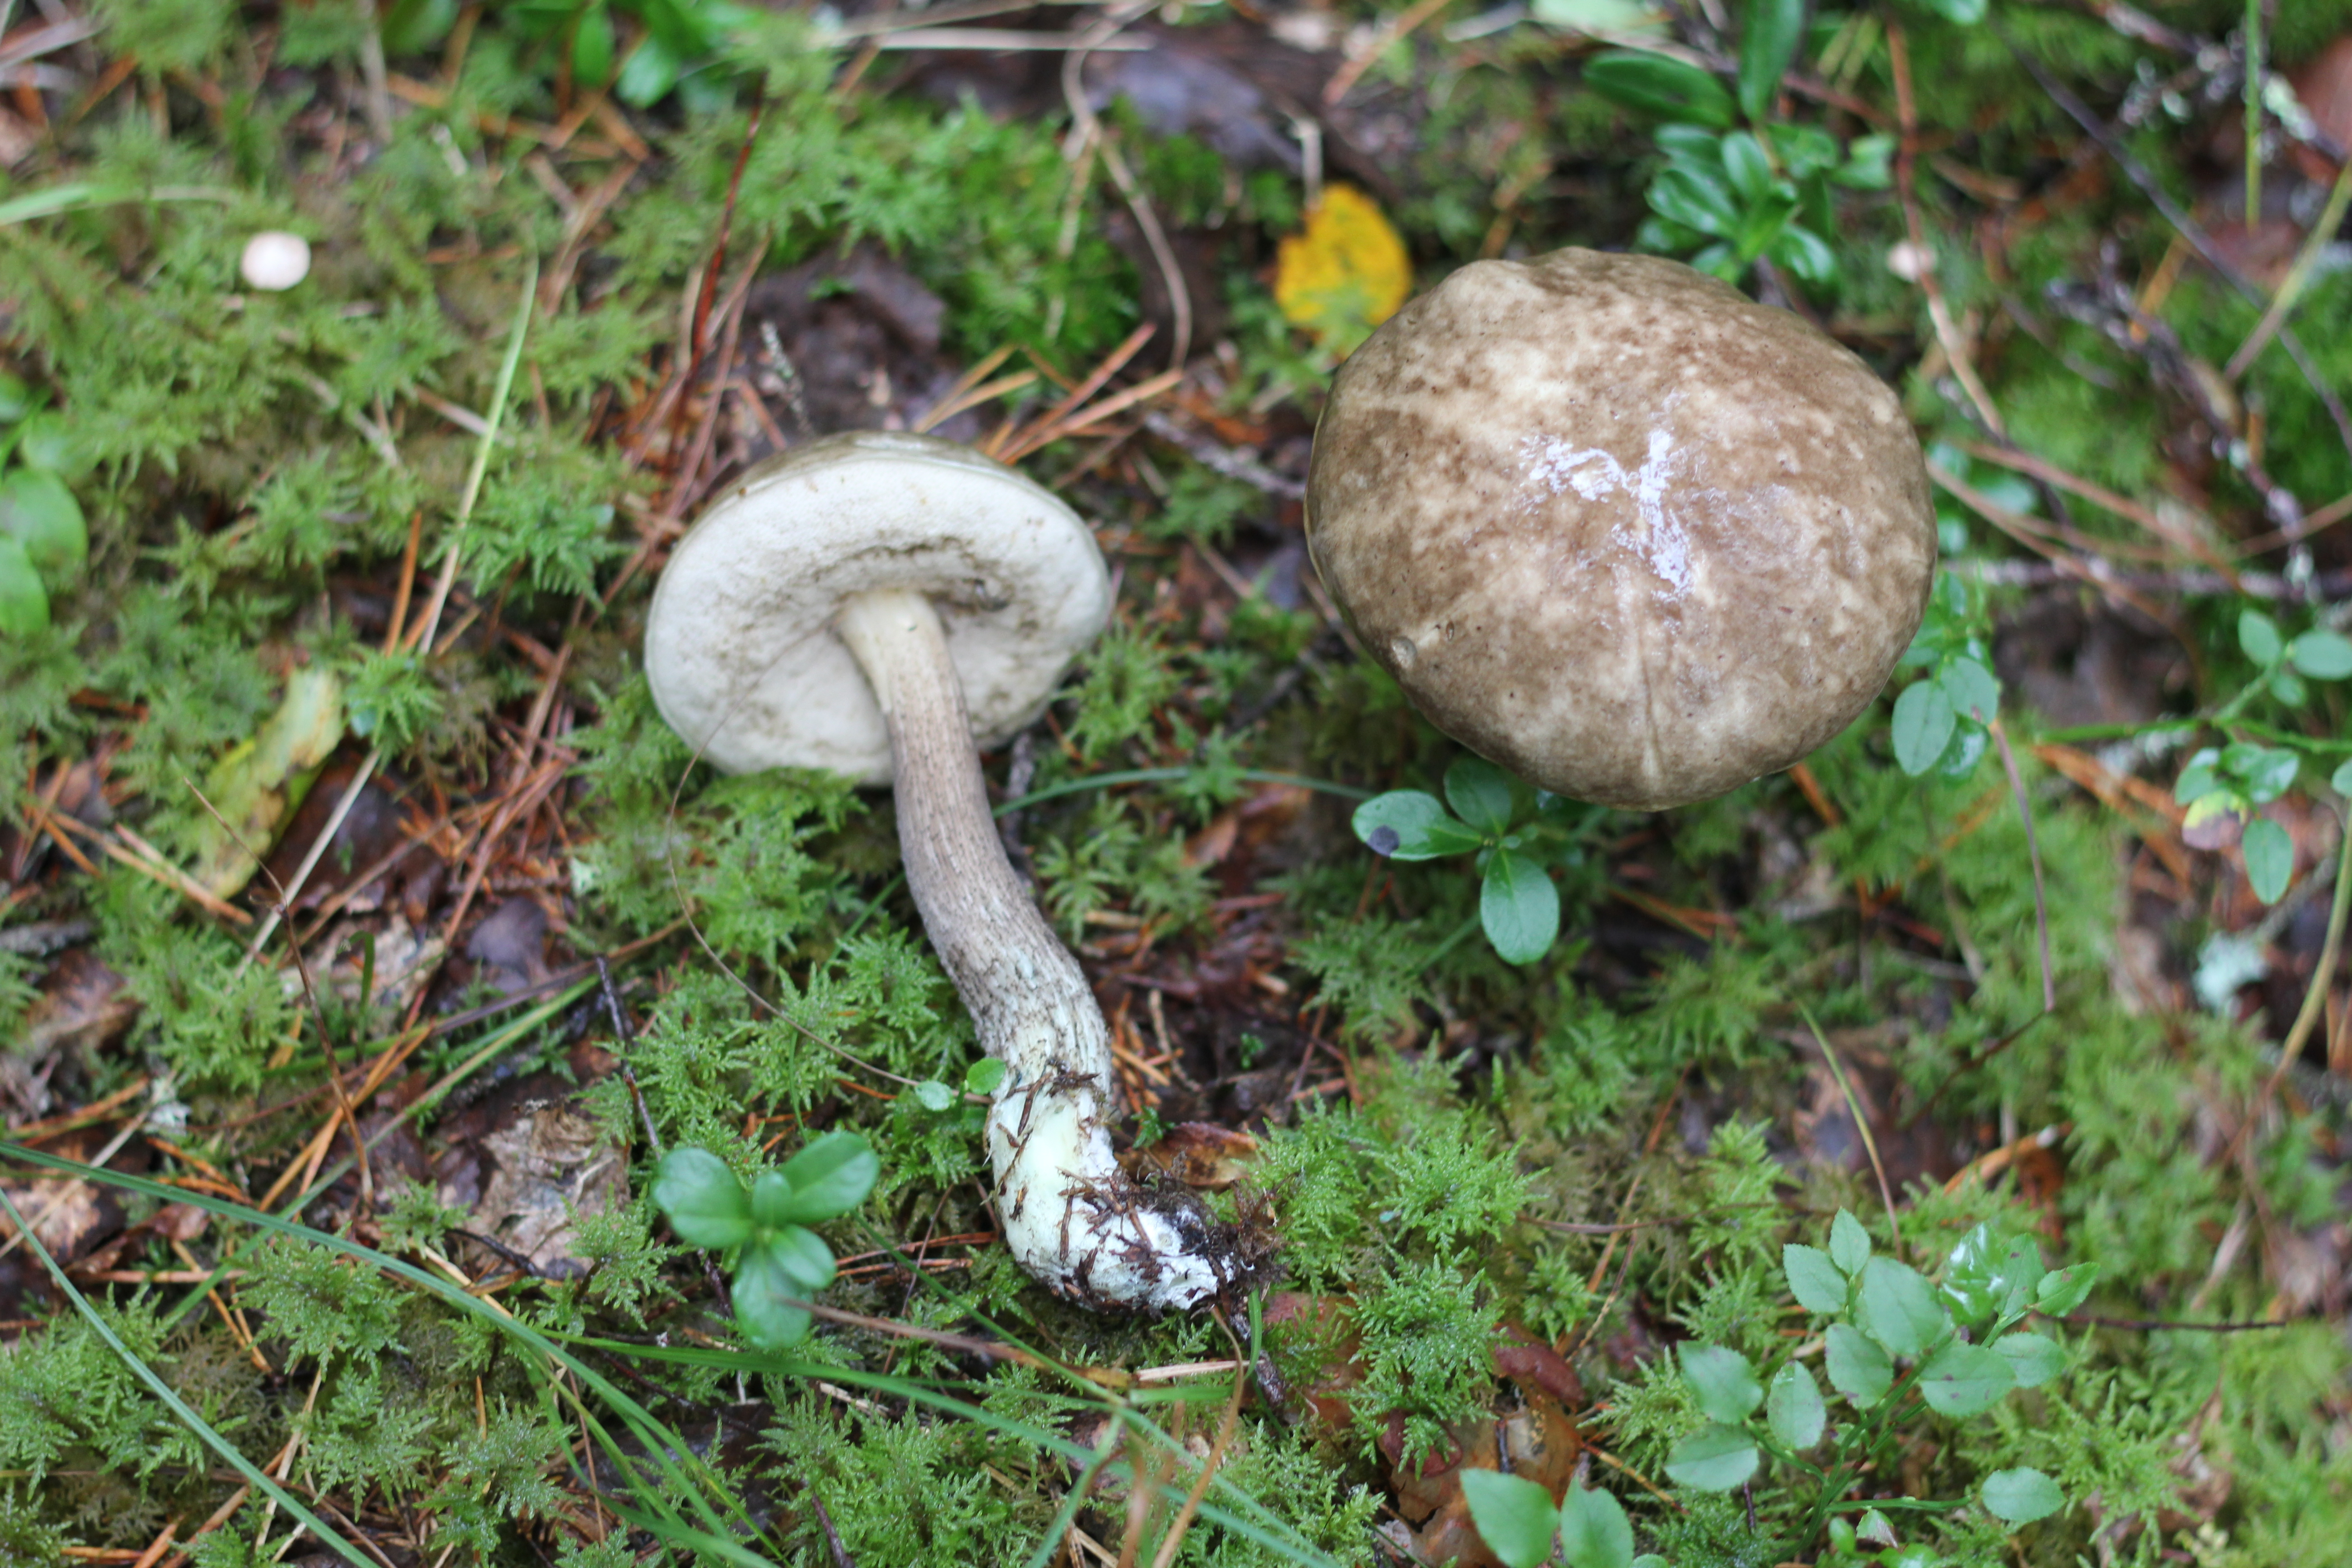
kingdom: Fungi
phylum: Basidiomycota
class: Agaricomycetes
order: Boletales
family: Boletaceae
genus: Leccinum
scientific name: Leccinum variicolor
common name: Mottled bolete
